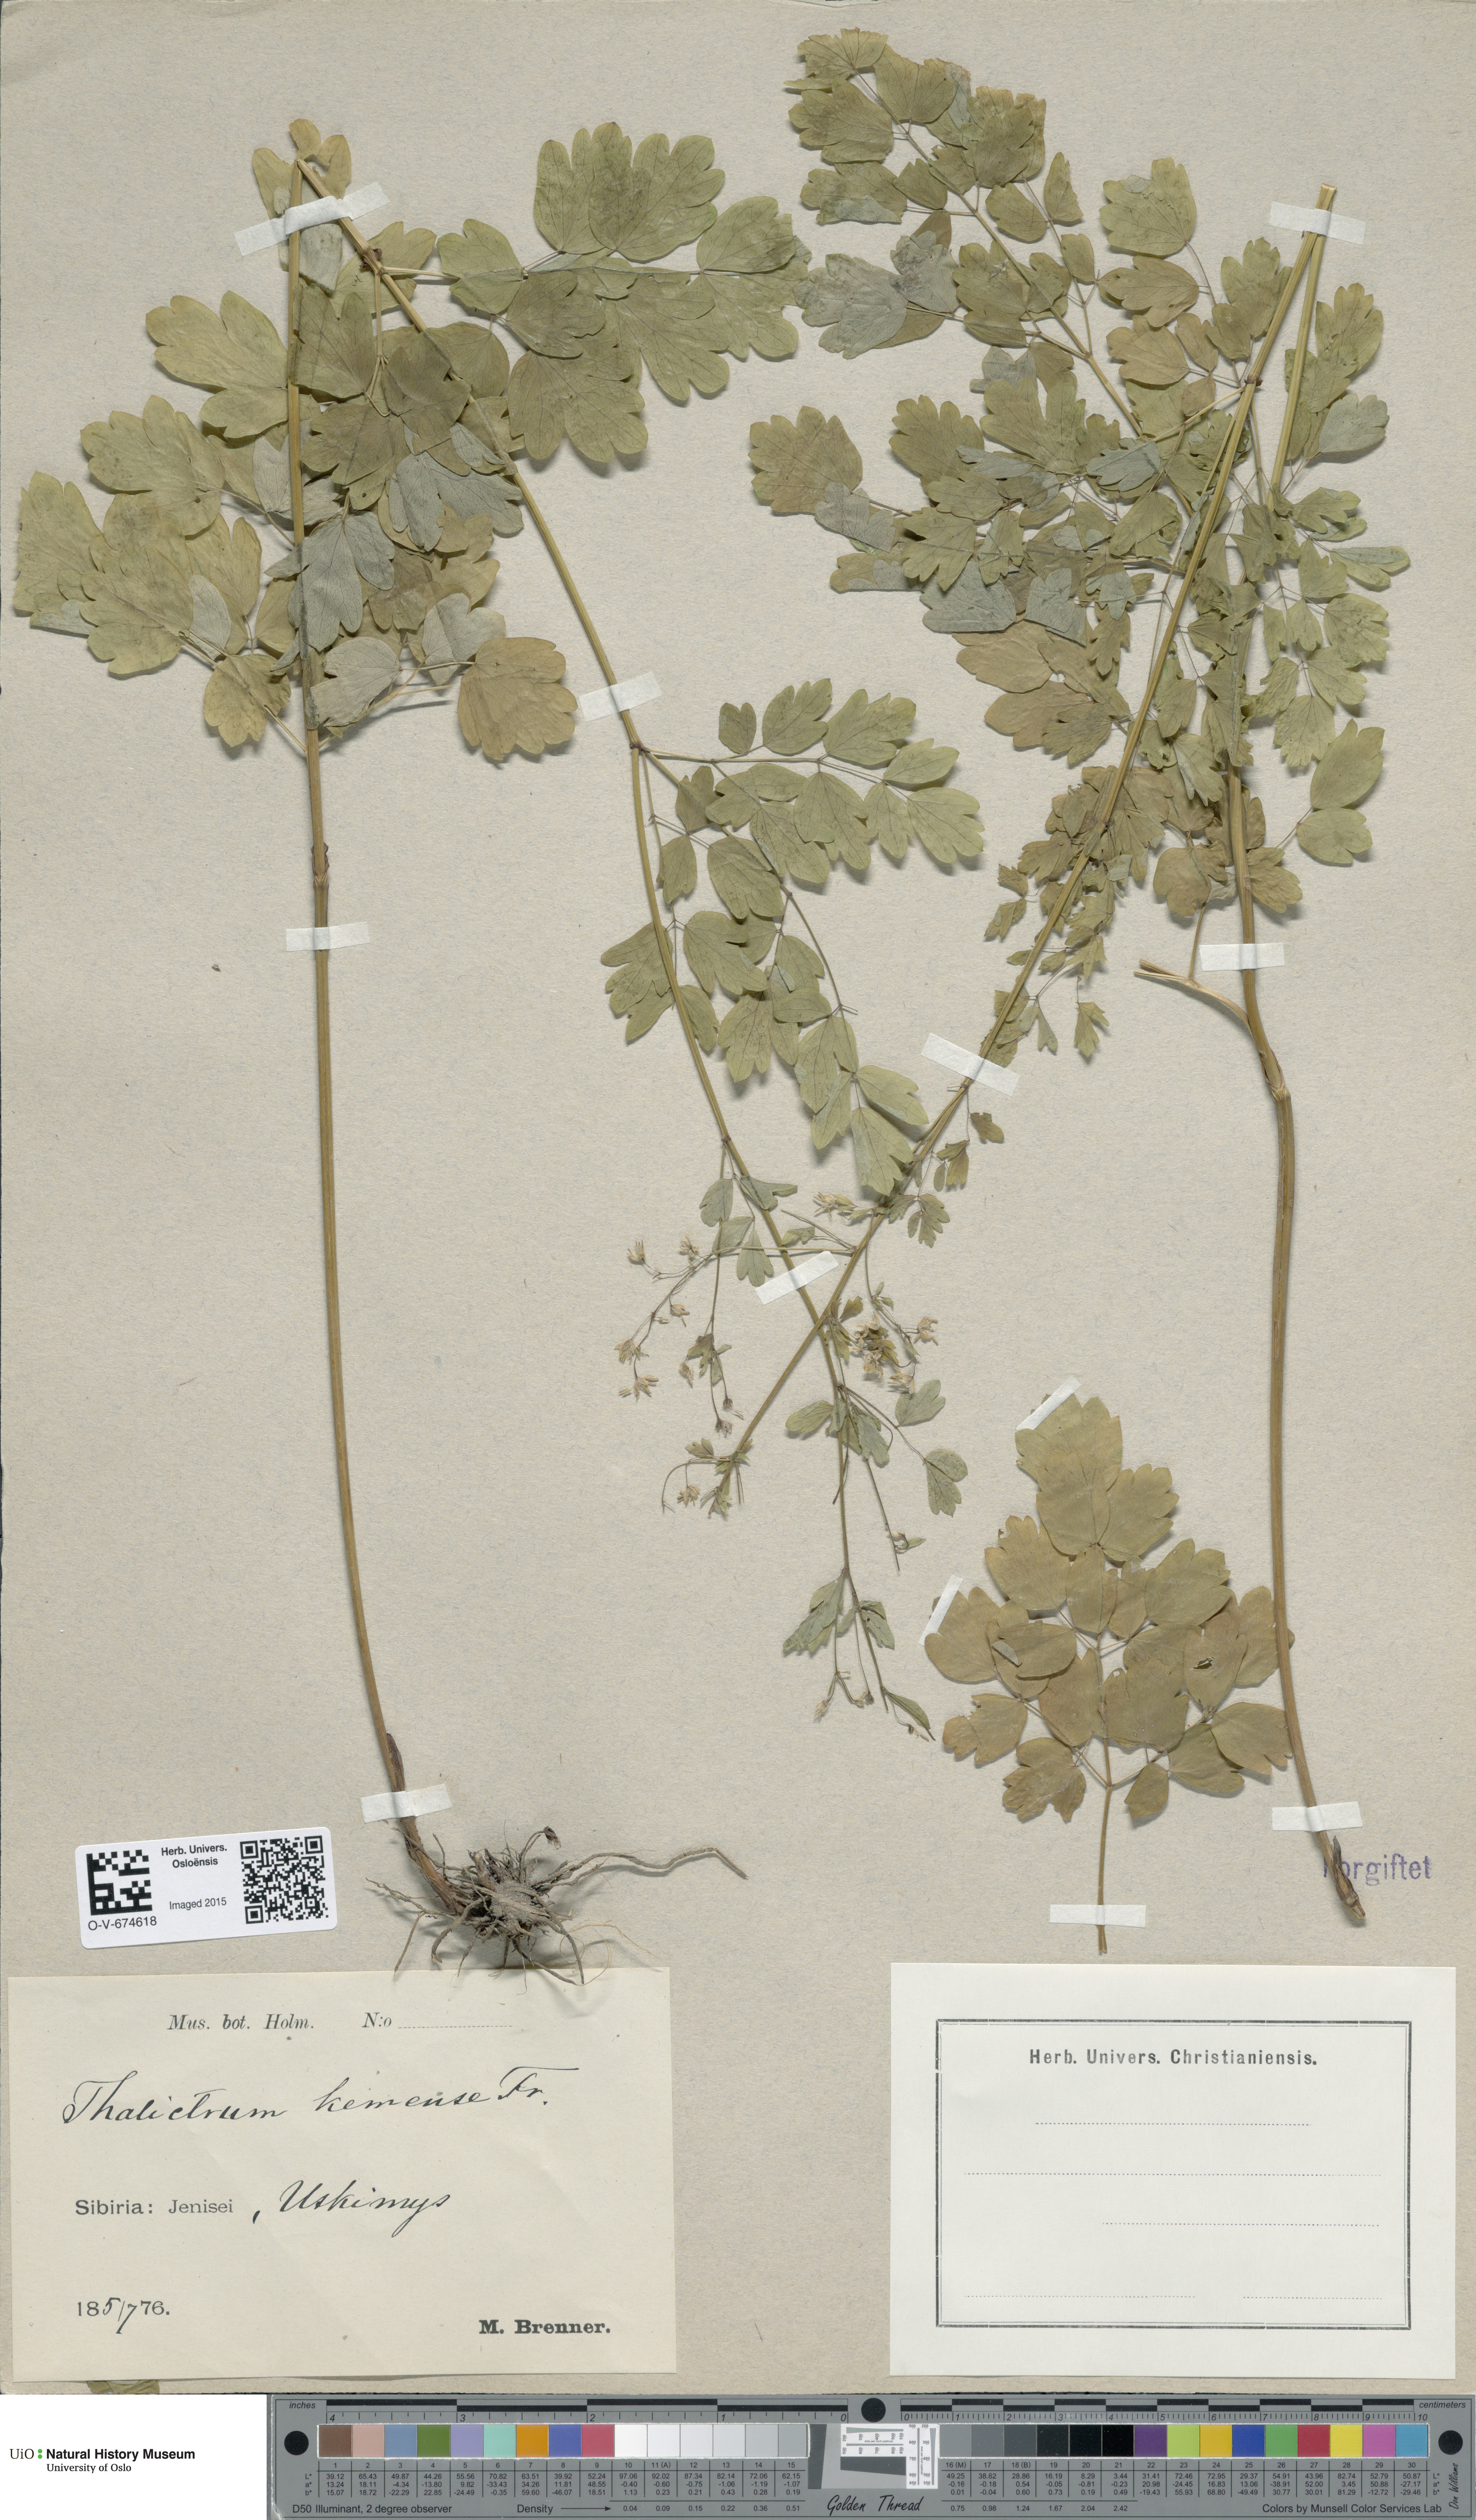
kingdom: Plantae
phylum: Tracheophyta
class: Magnoliopsida
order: Ranunculales
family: Ranunculaceae
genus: Thalictrum
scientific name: Thalictrum minus
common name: Lesser meadow-rue
